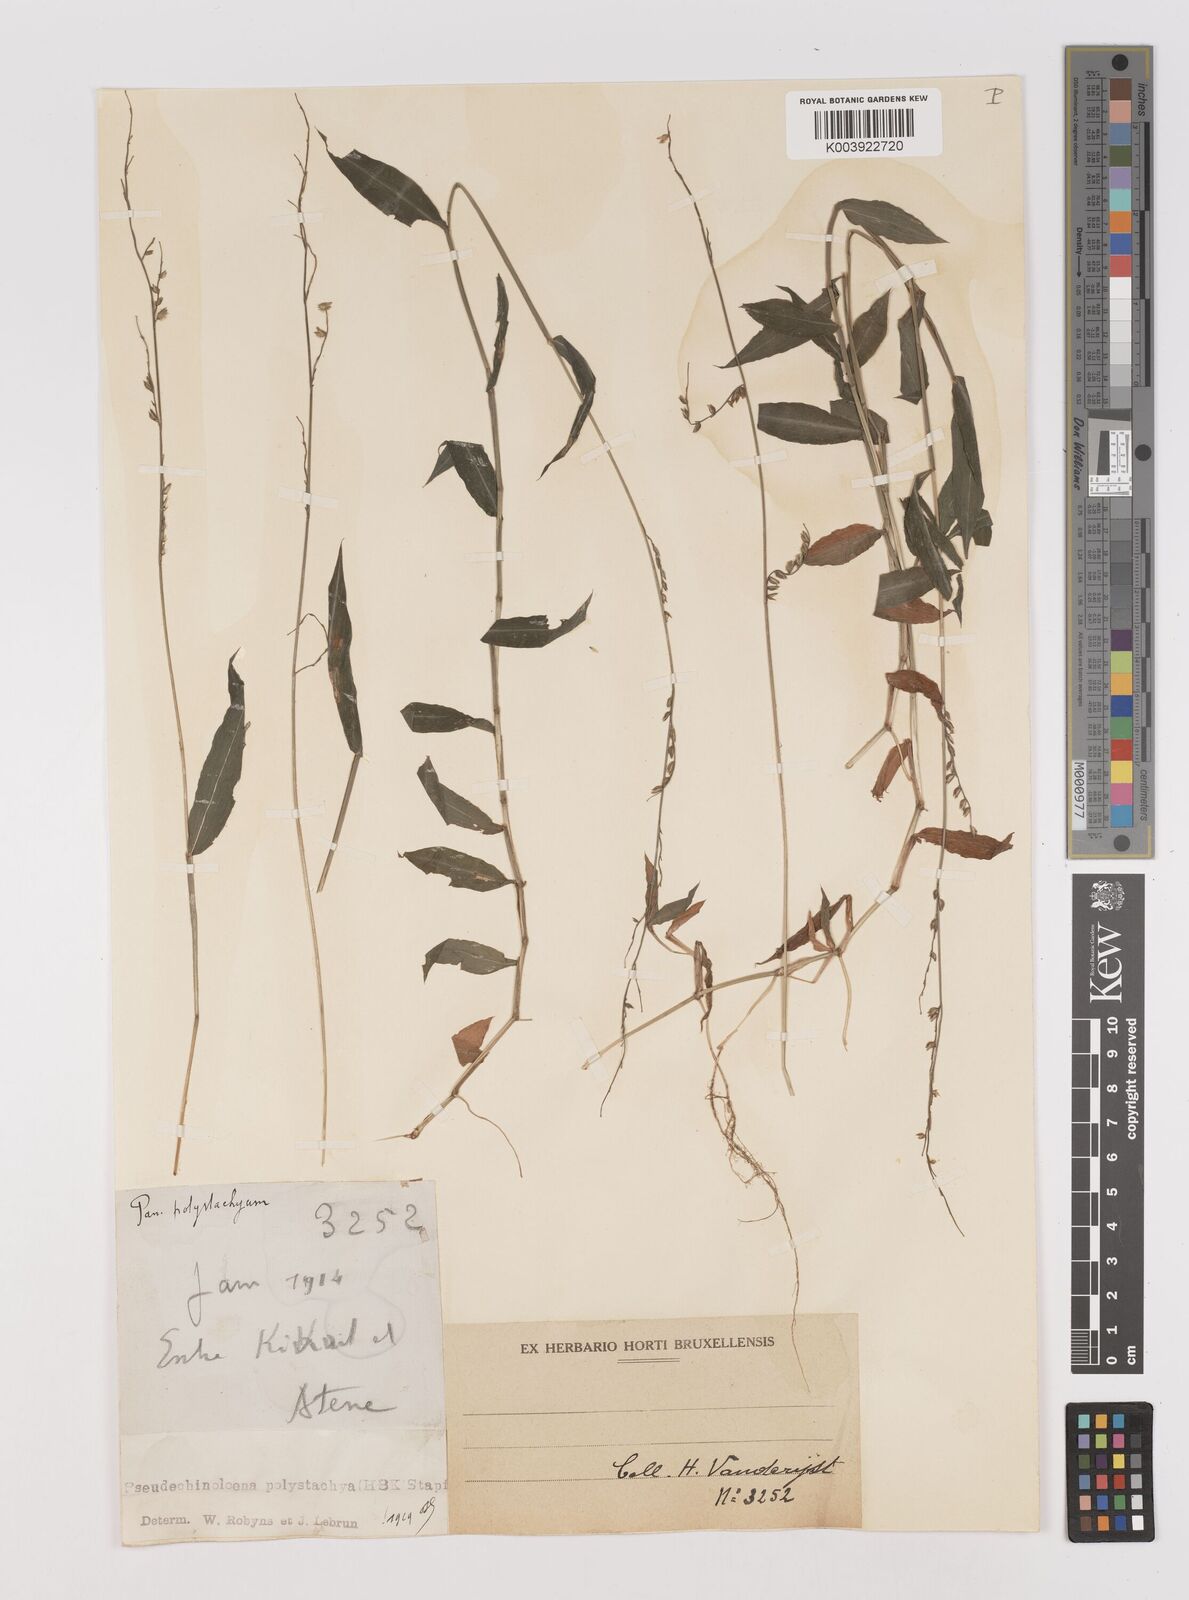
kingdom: Plantae
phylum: Tracheophyta
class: Liliopsida
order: Poales
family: Poaceae
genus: Pseudechinolaena
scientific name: Pseudechinolaena polystachya
